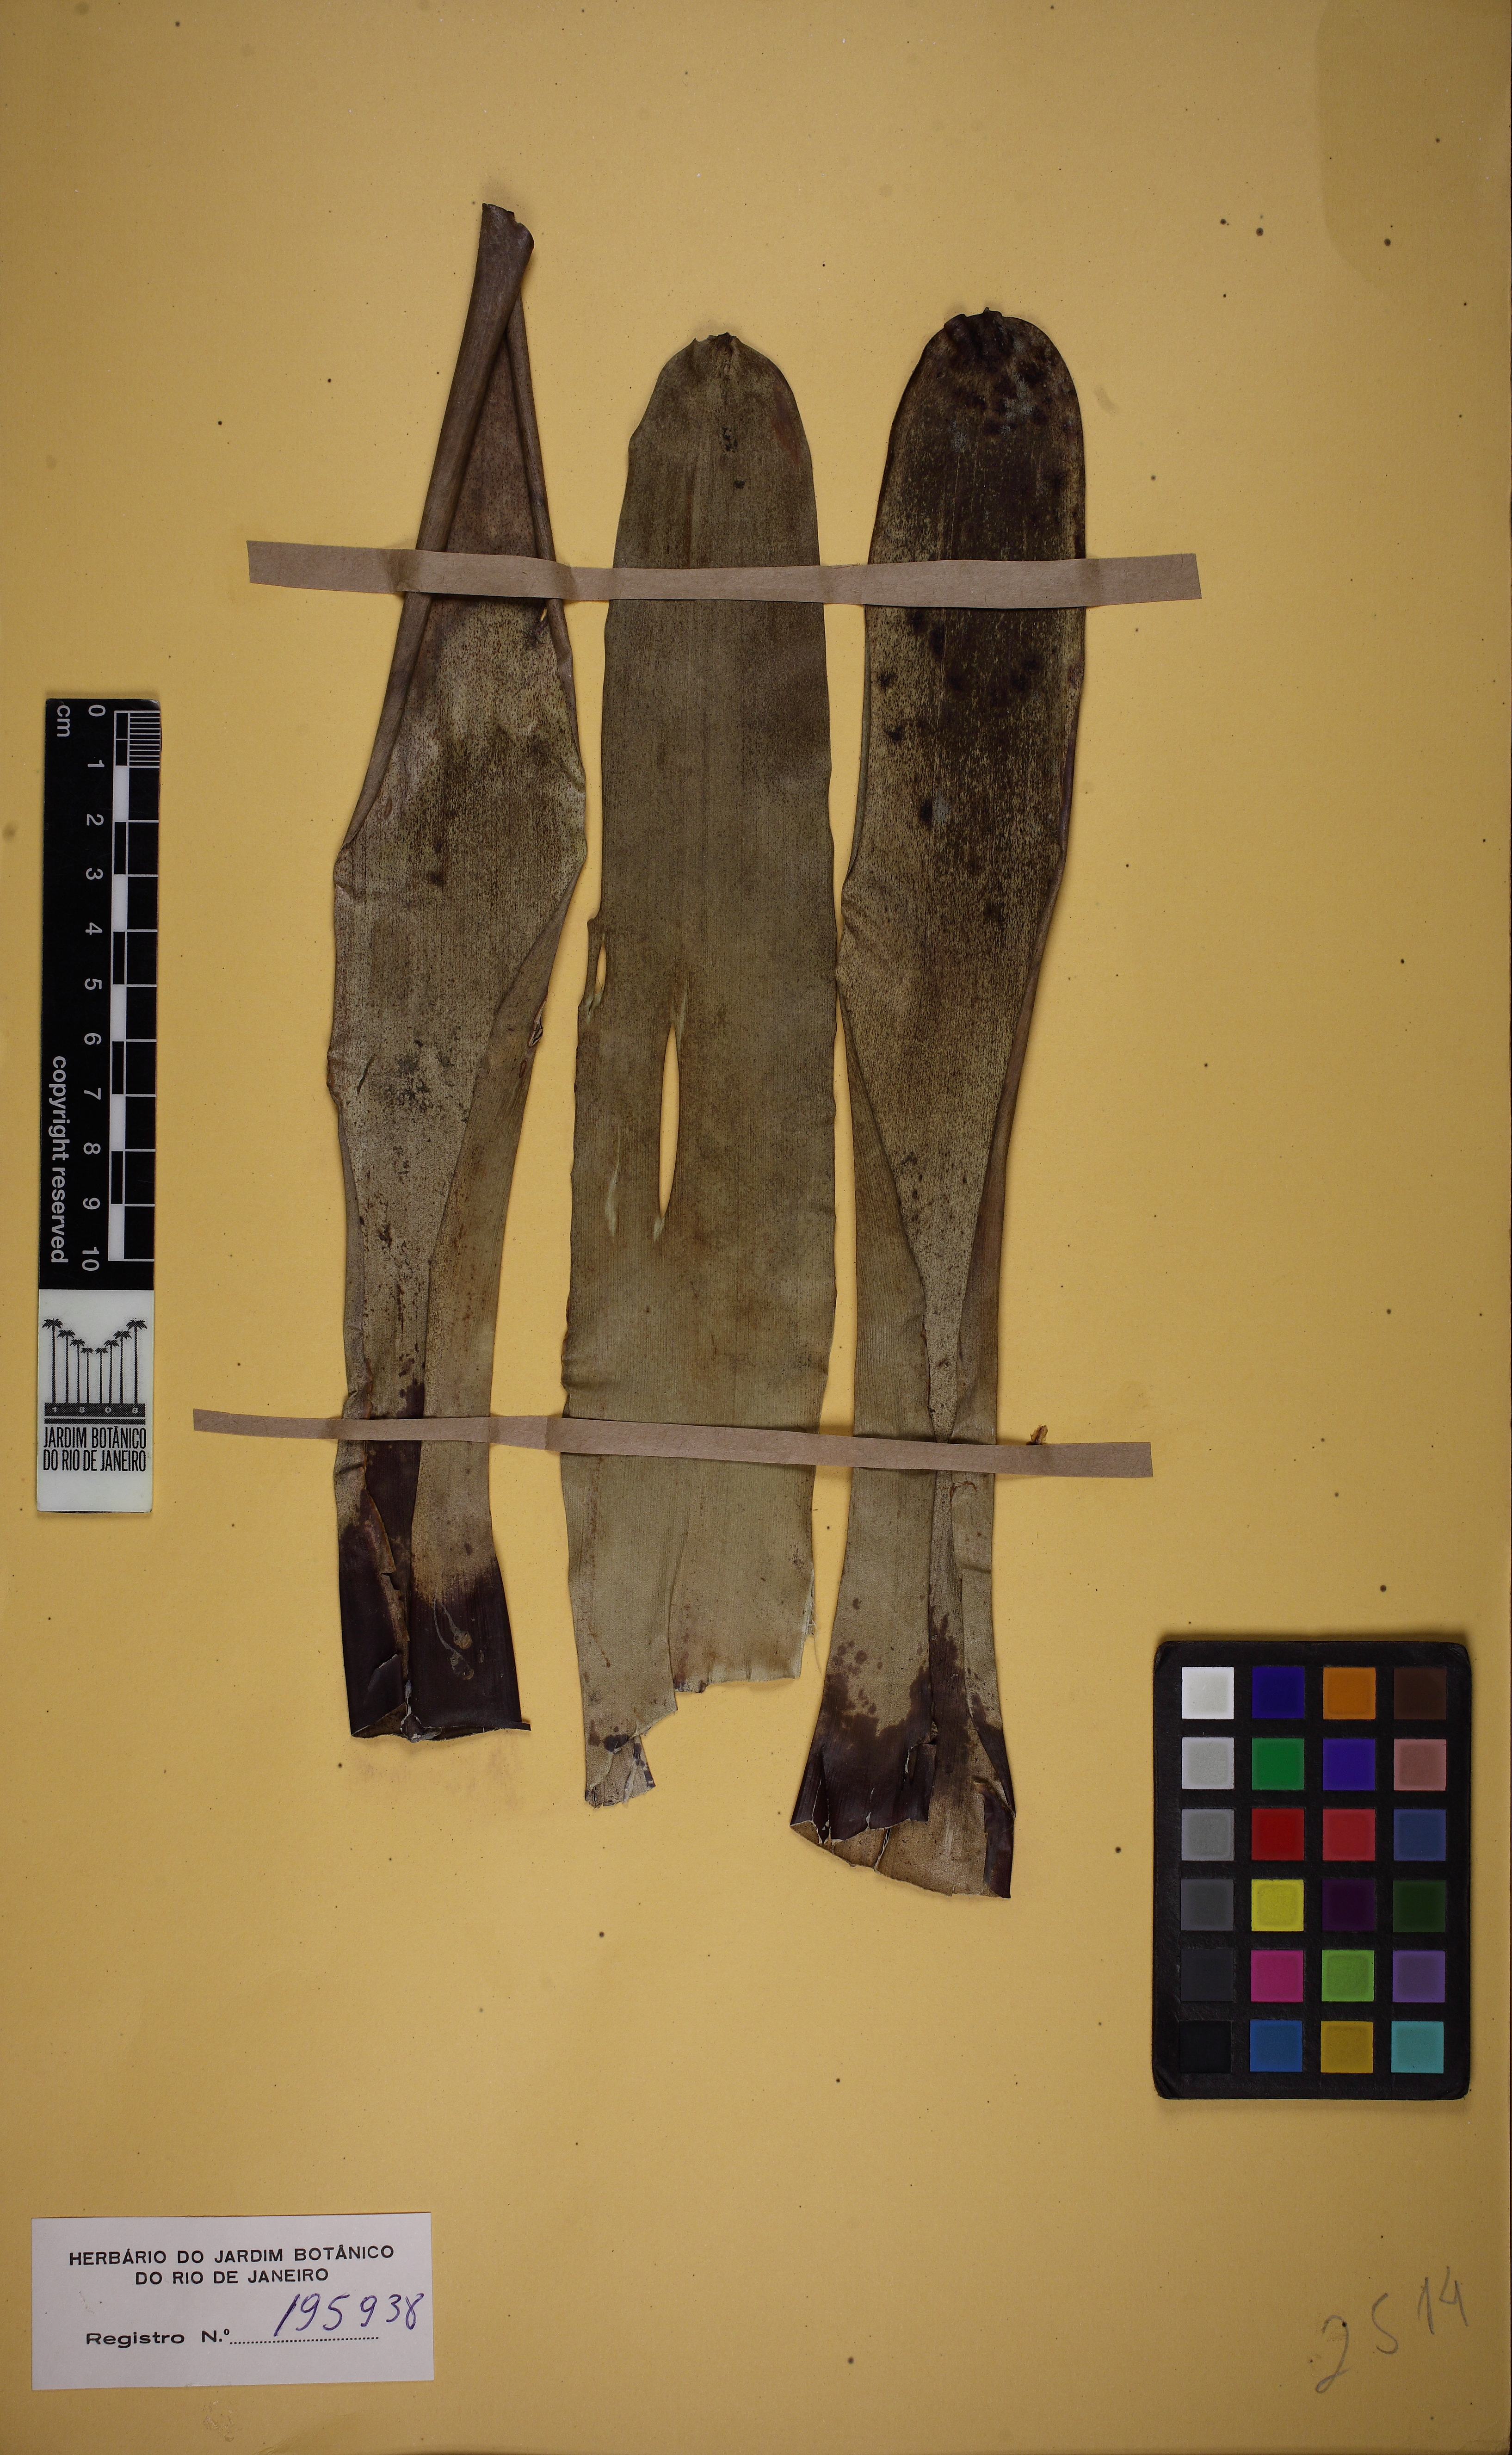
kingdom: Plantae
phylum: Tracheophyta
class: Liliopsida
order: Poales
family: Bromeliaceae
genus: Vriesea
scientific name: Vriesea triligulata
